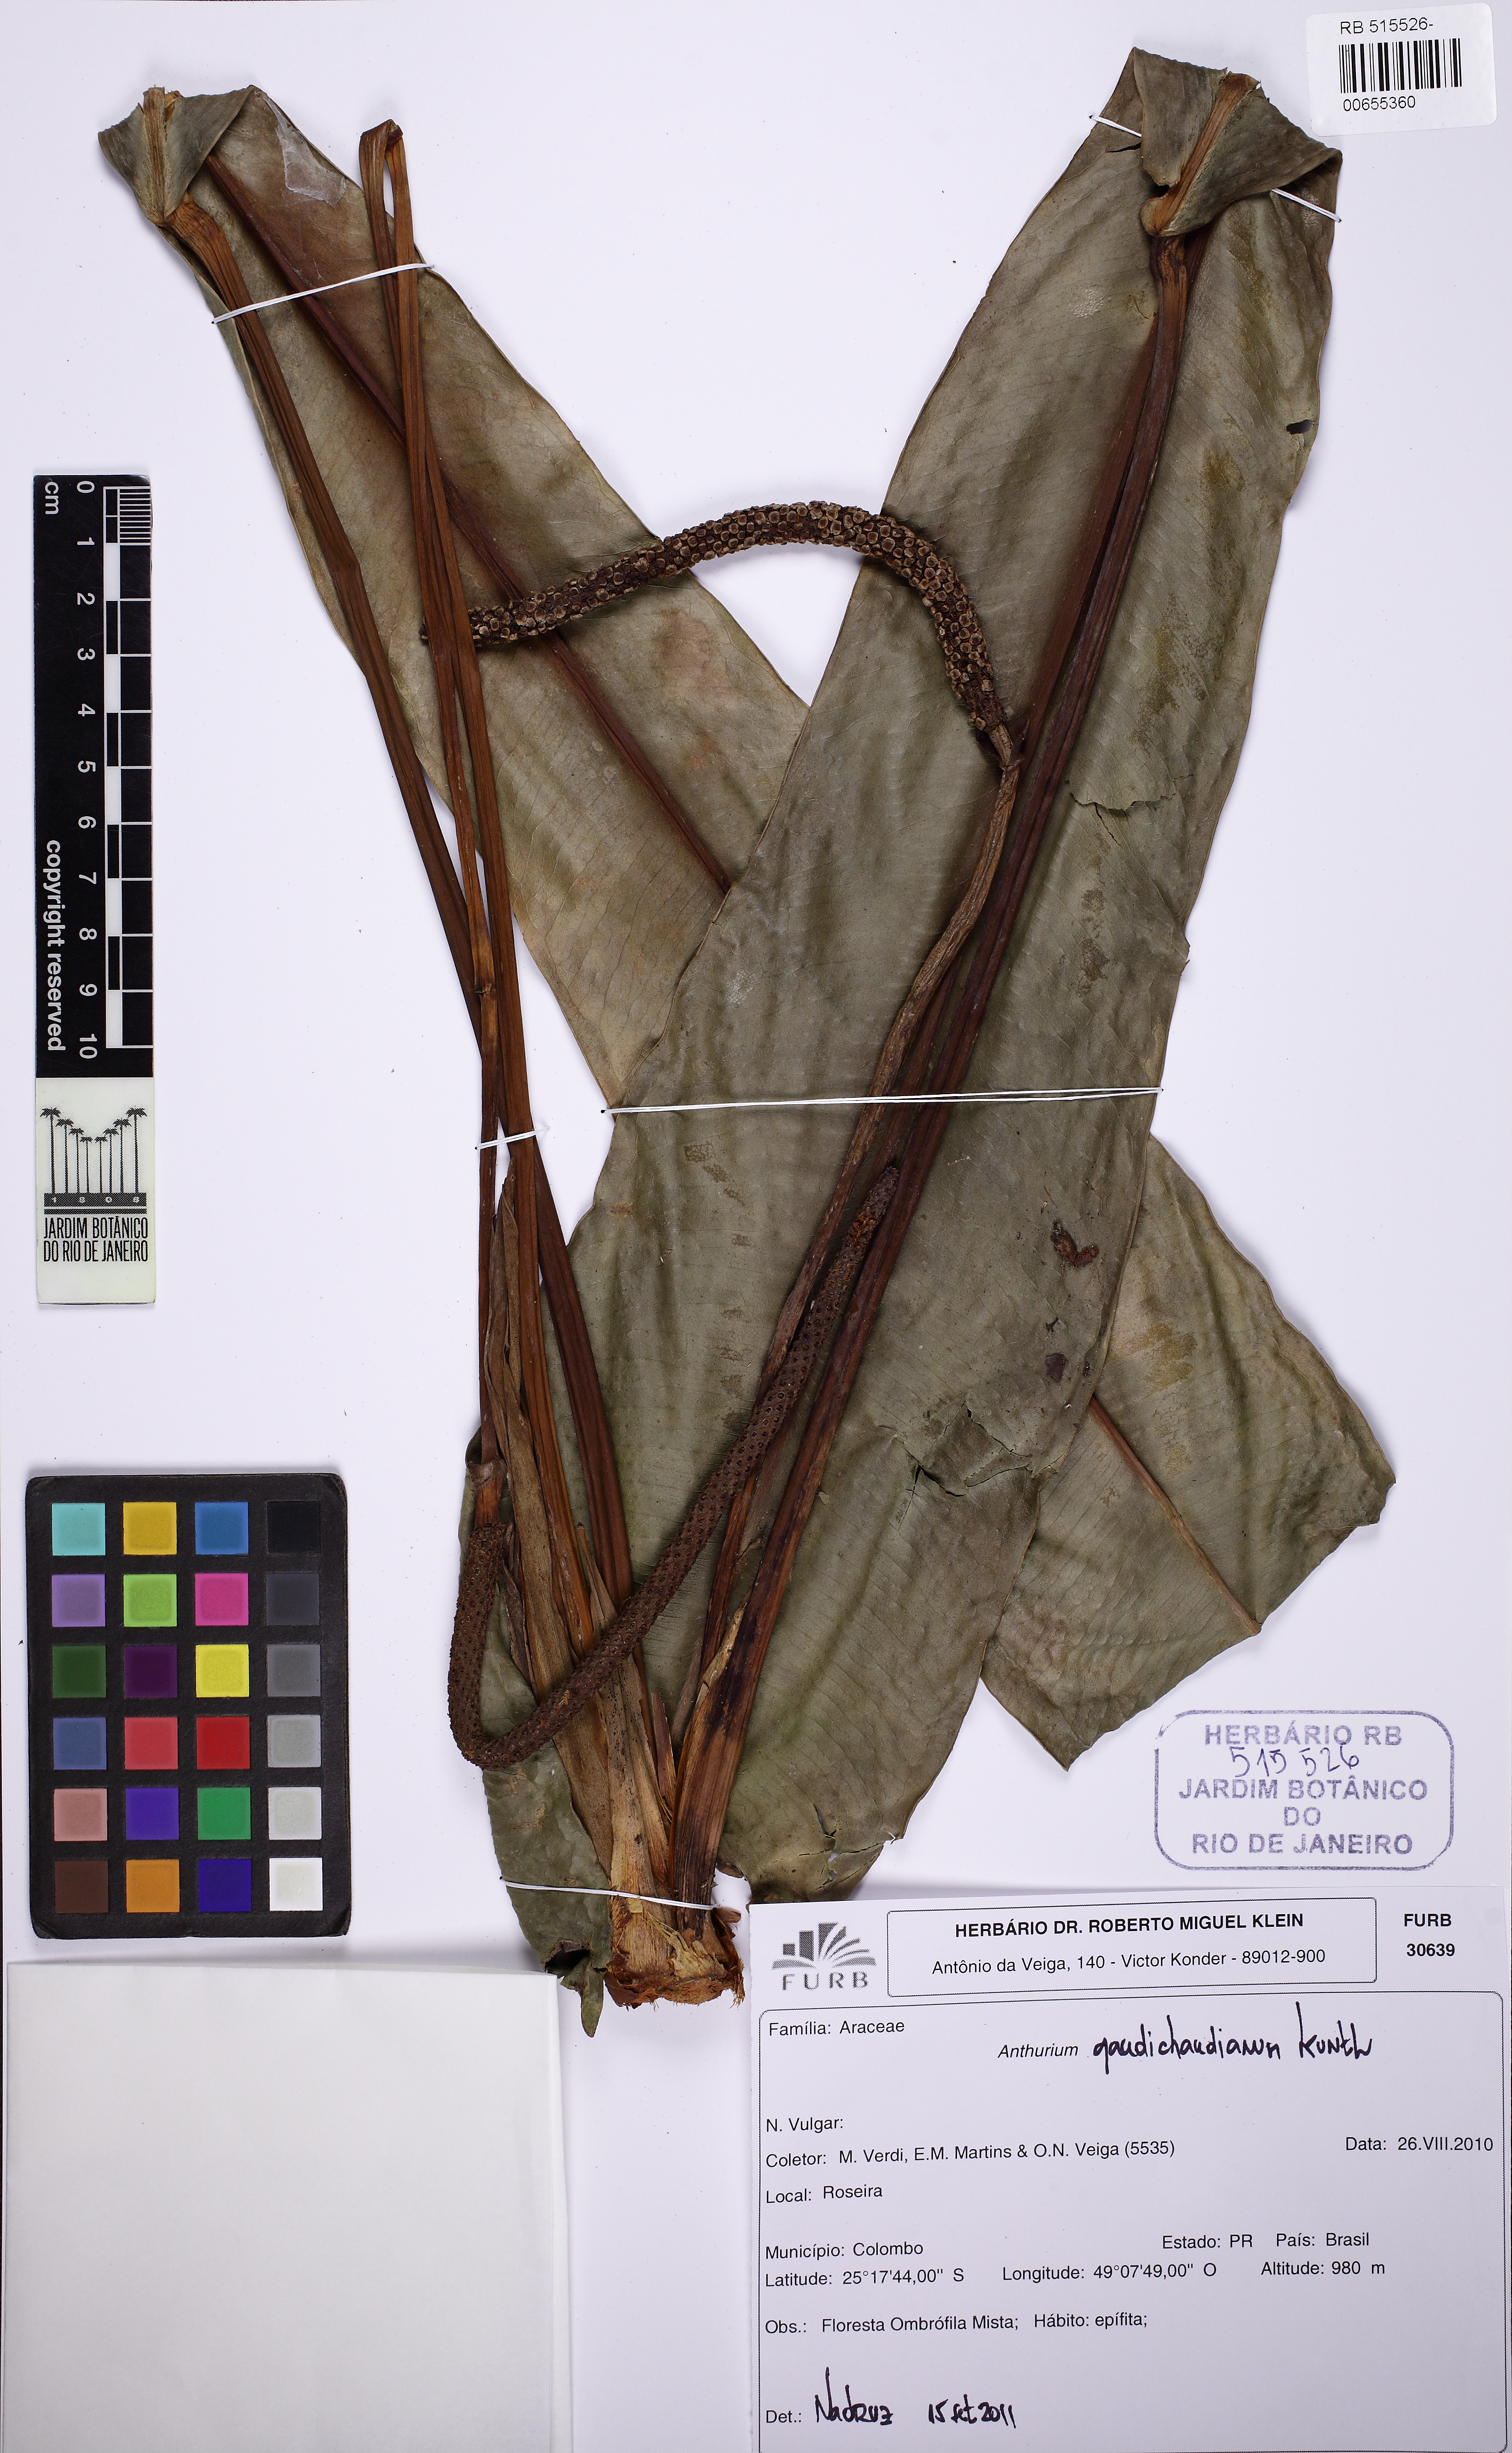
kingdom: Plantae
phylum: Tracheophyta
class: Liliopsida
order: Alismatales
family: Araceae
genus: Anthurium
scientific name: Anthurium gaudichaudianum
